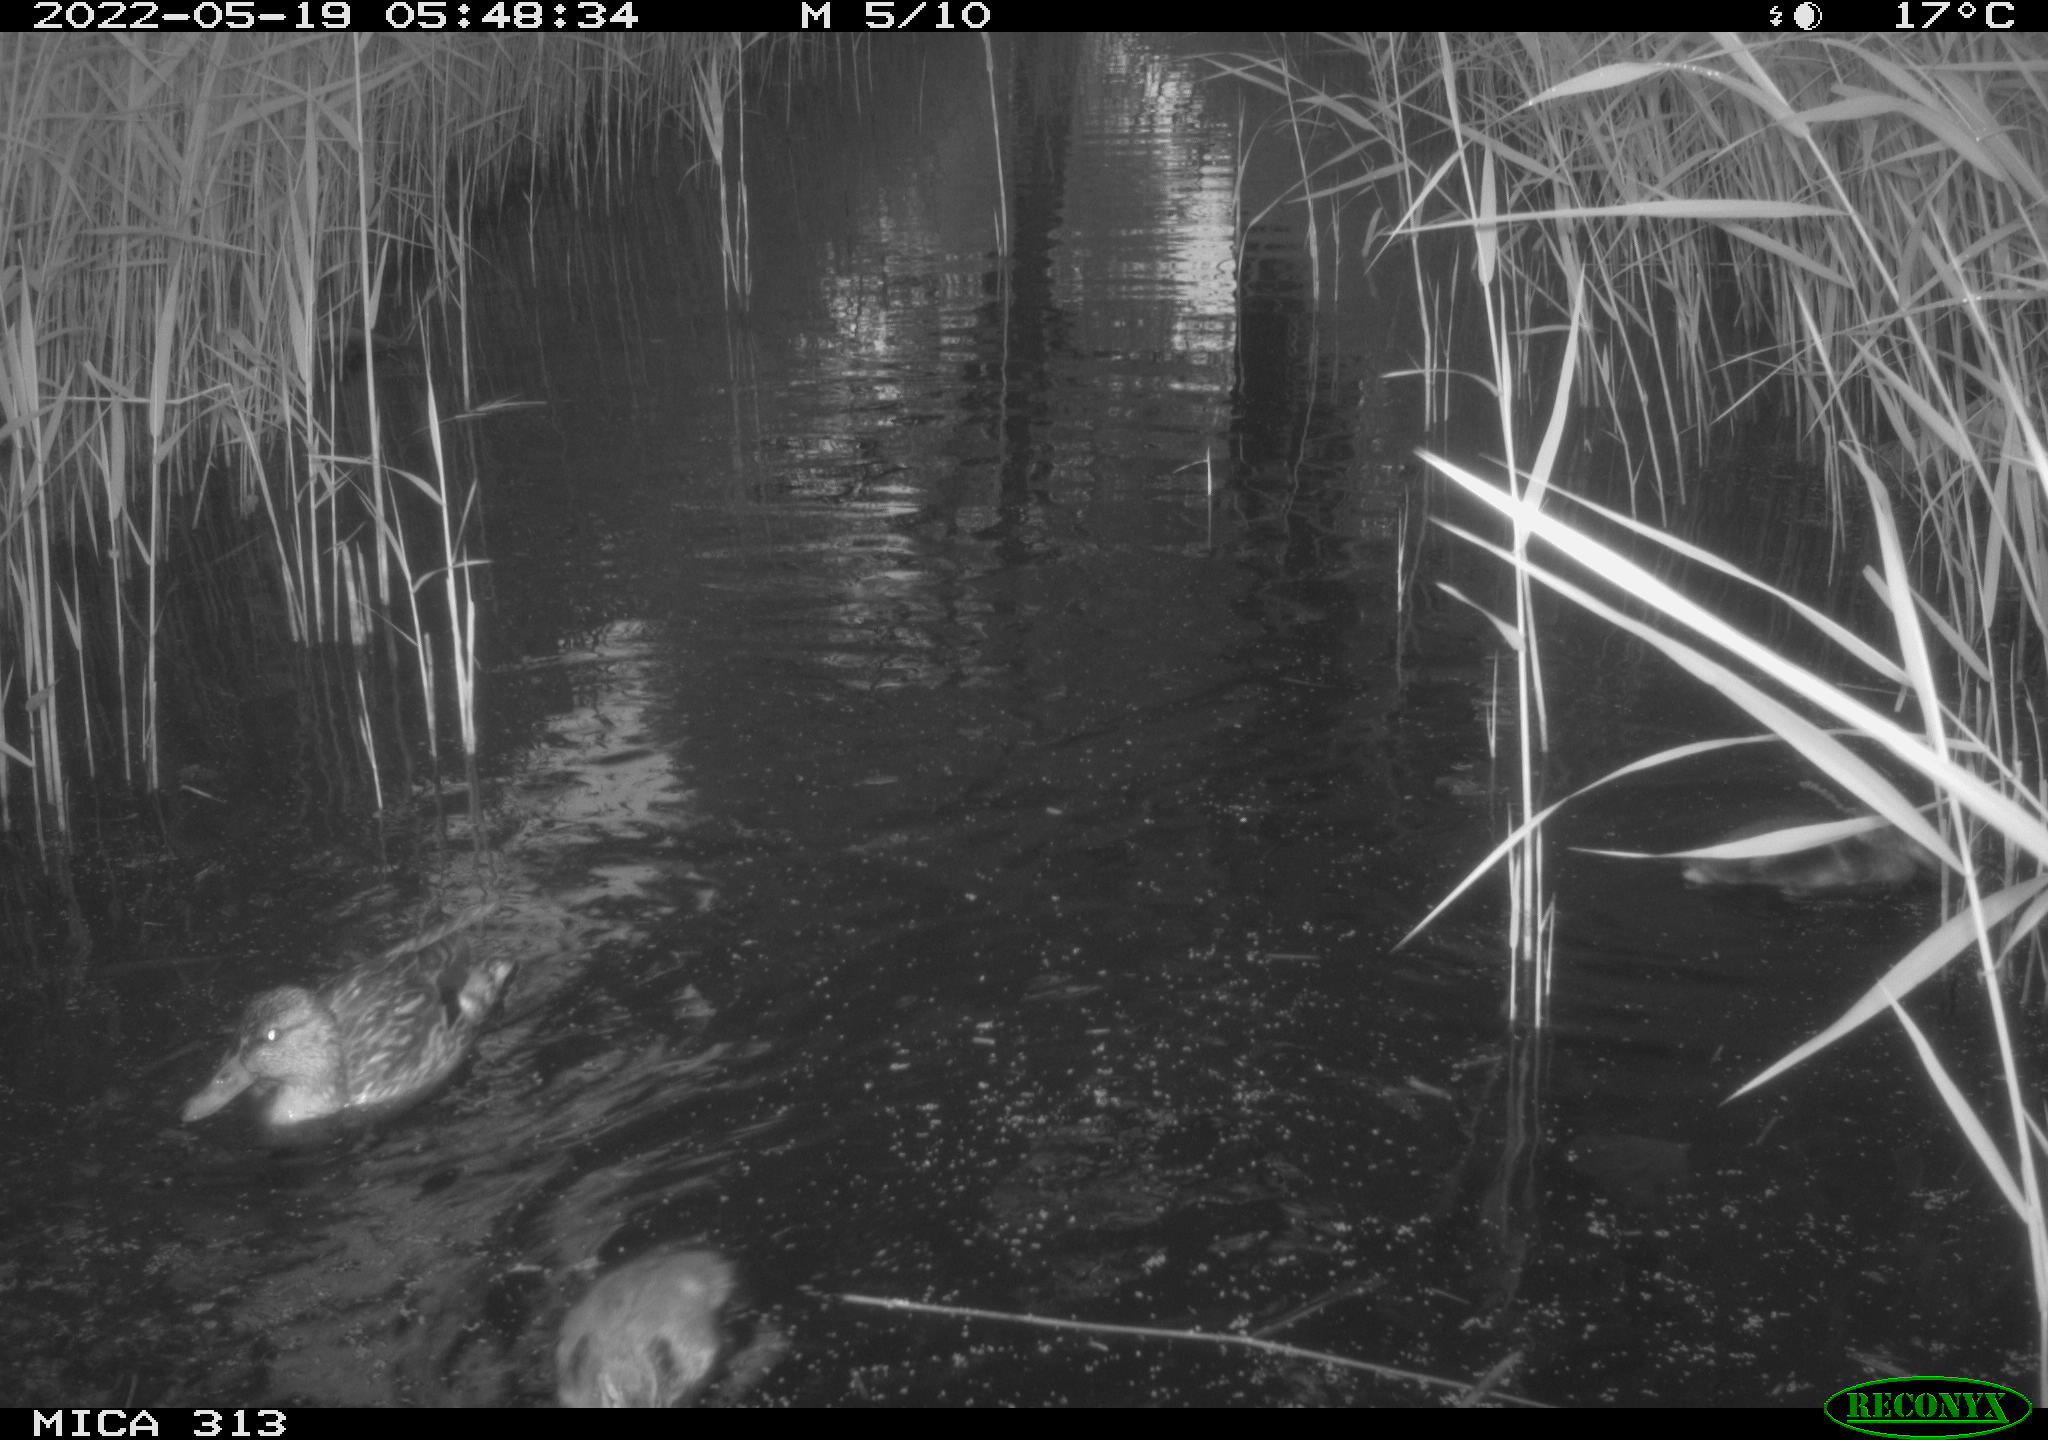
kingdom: Animalia
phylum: Chordata
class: Aves
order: Anseriformes
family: Anatidae
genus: Anas
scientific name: Anas platyrhynchos
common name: Mallard
